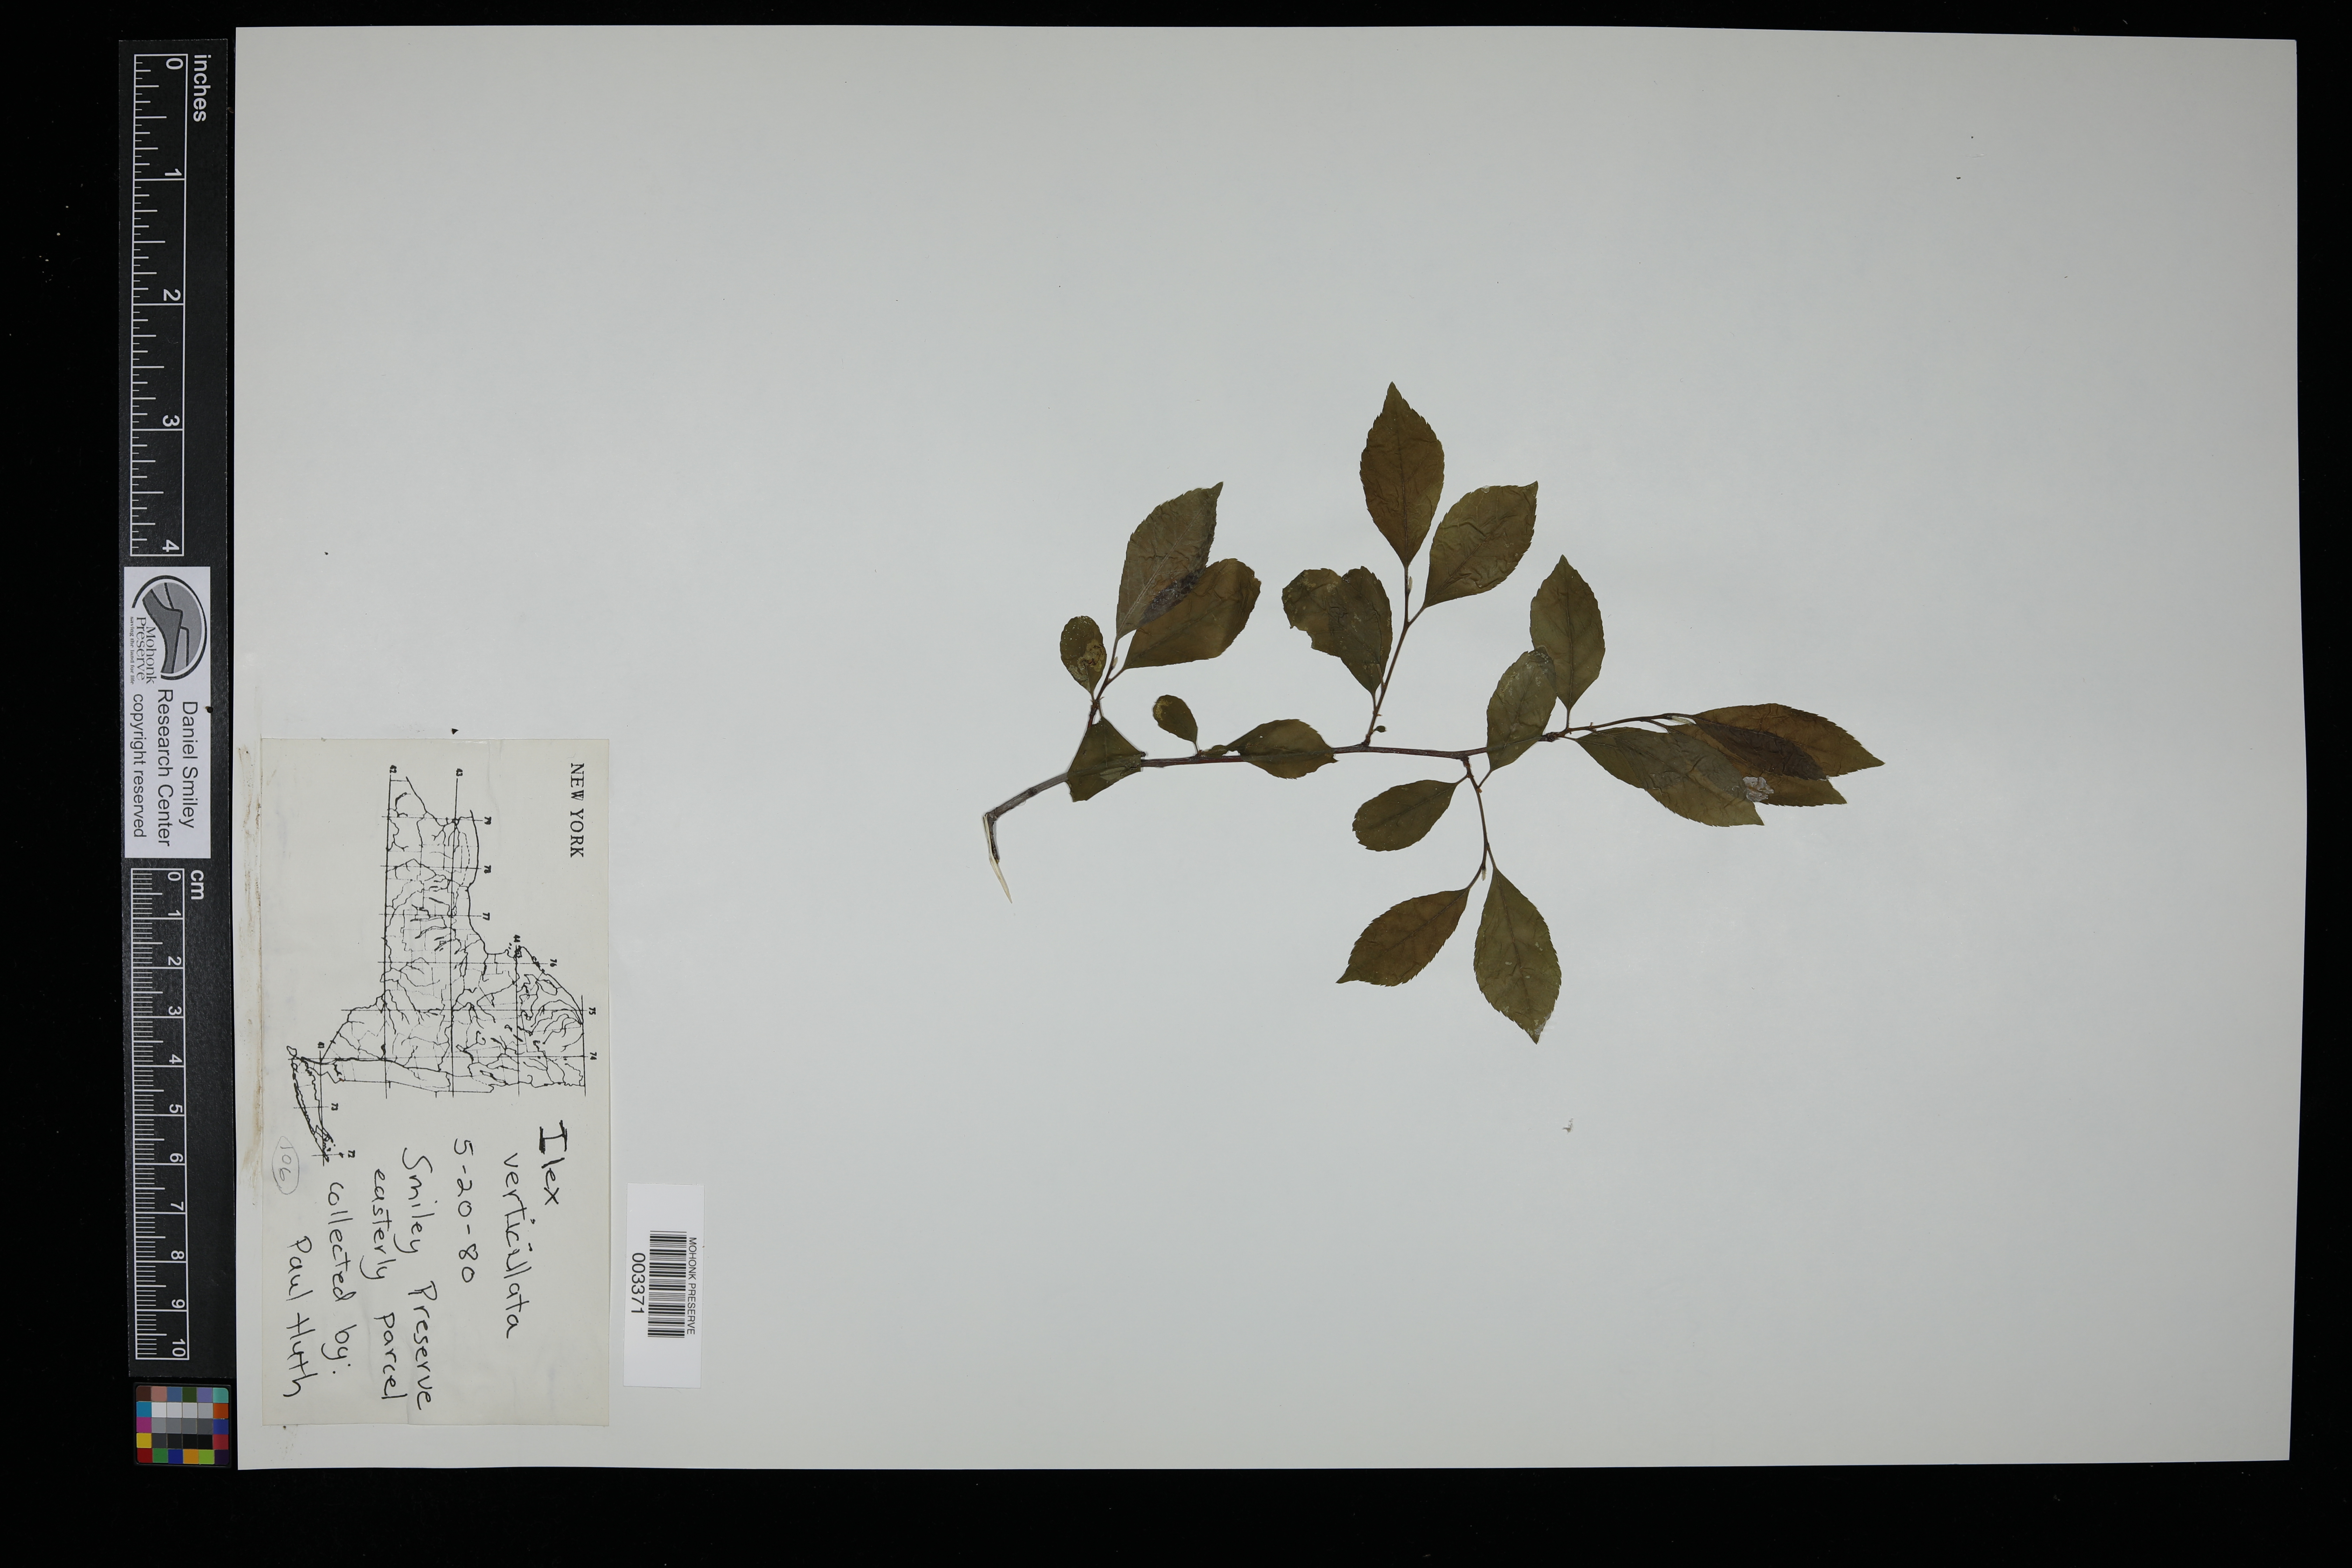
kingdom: Plantae
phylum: Tracheophyta
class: Magnoliopsida
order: Aquifoliales
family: Aquifoliaceae
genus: Ilex
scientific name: Ilex verticillata
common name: Virginia winterberry
